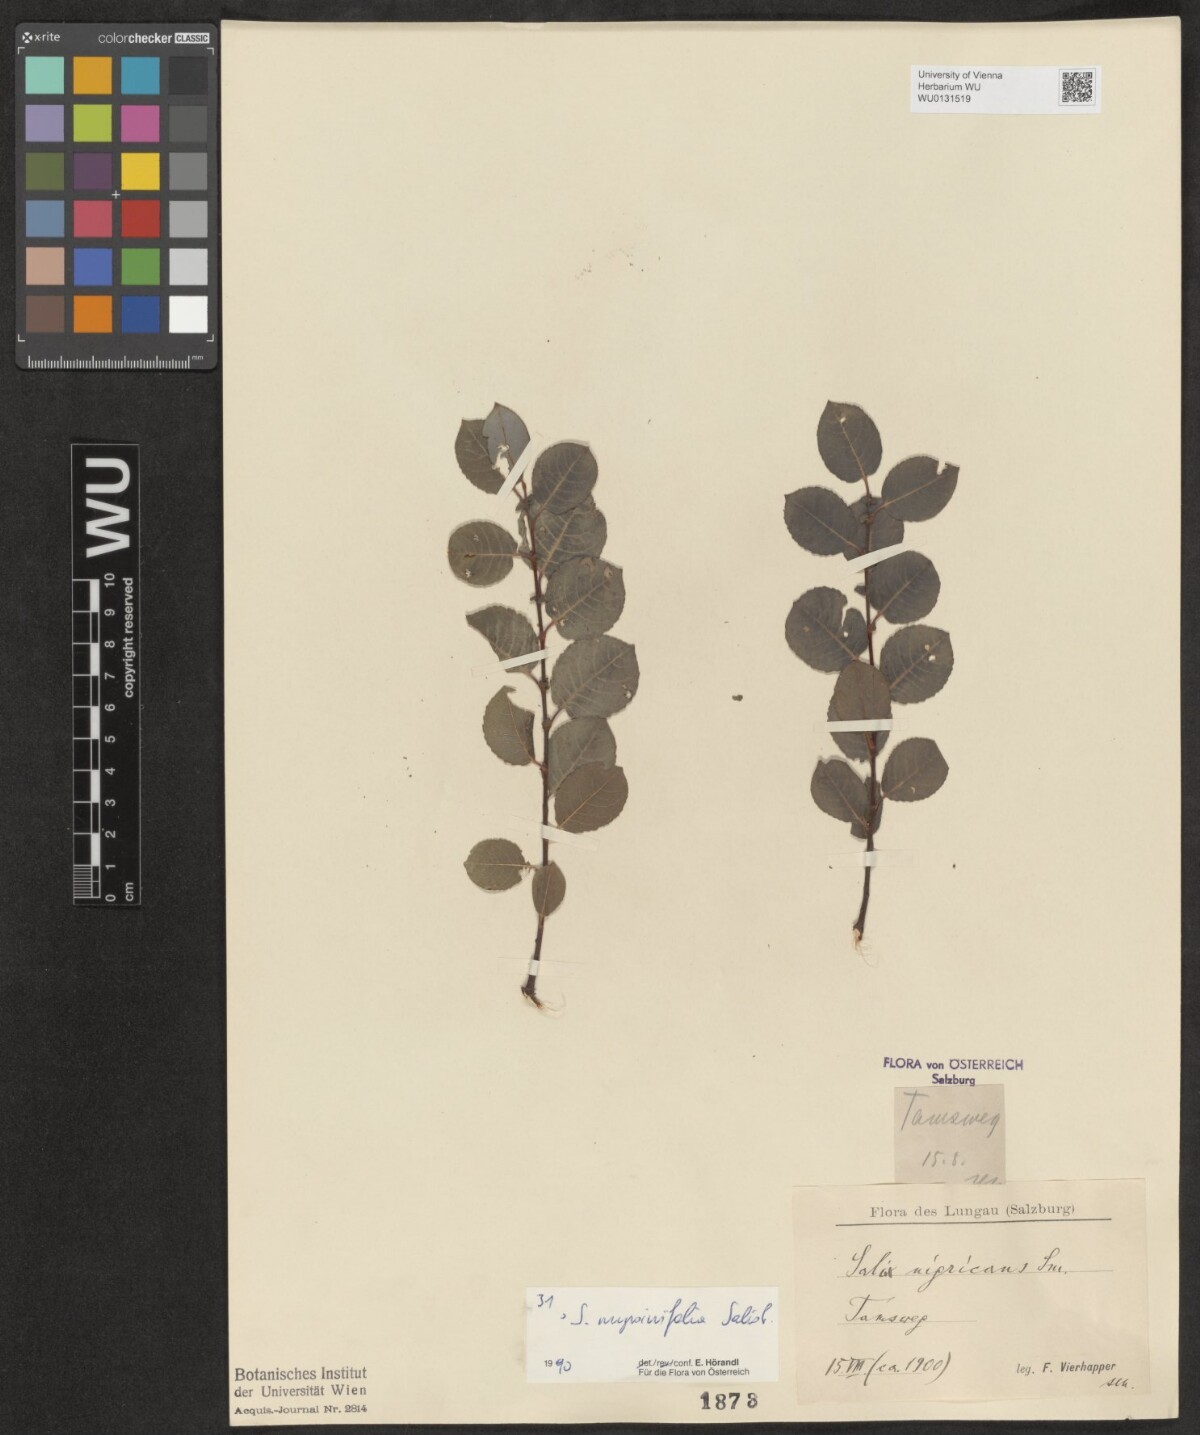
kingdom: Plantae
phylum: Tracheophyta
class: Magnoliopsida
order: Malpighiales
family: Salicaceae
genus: Salix
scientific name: Salix myrsinifolia
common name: Dark-leaved willow
